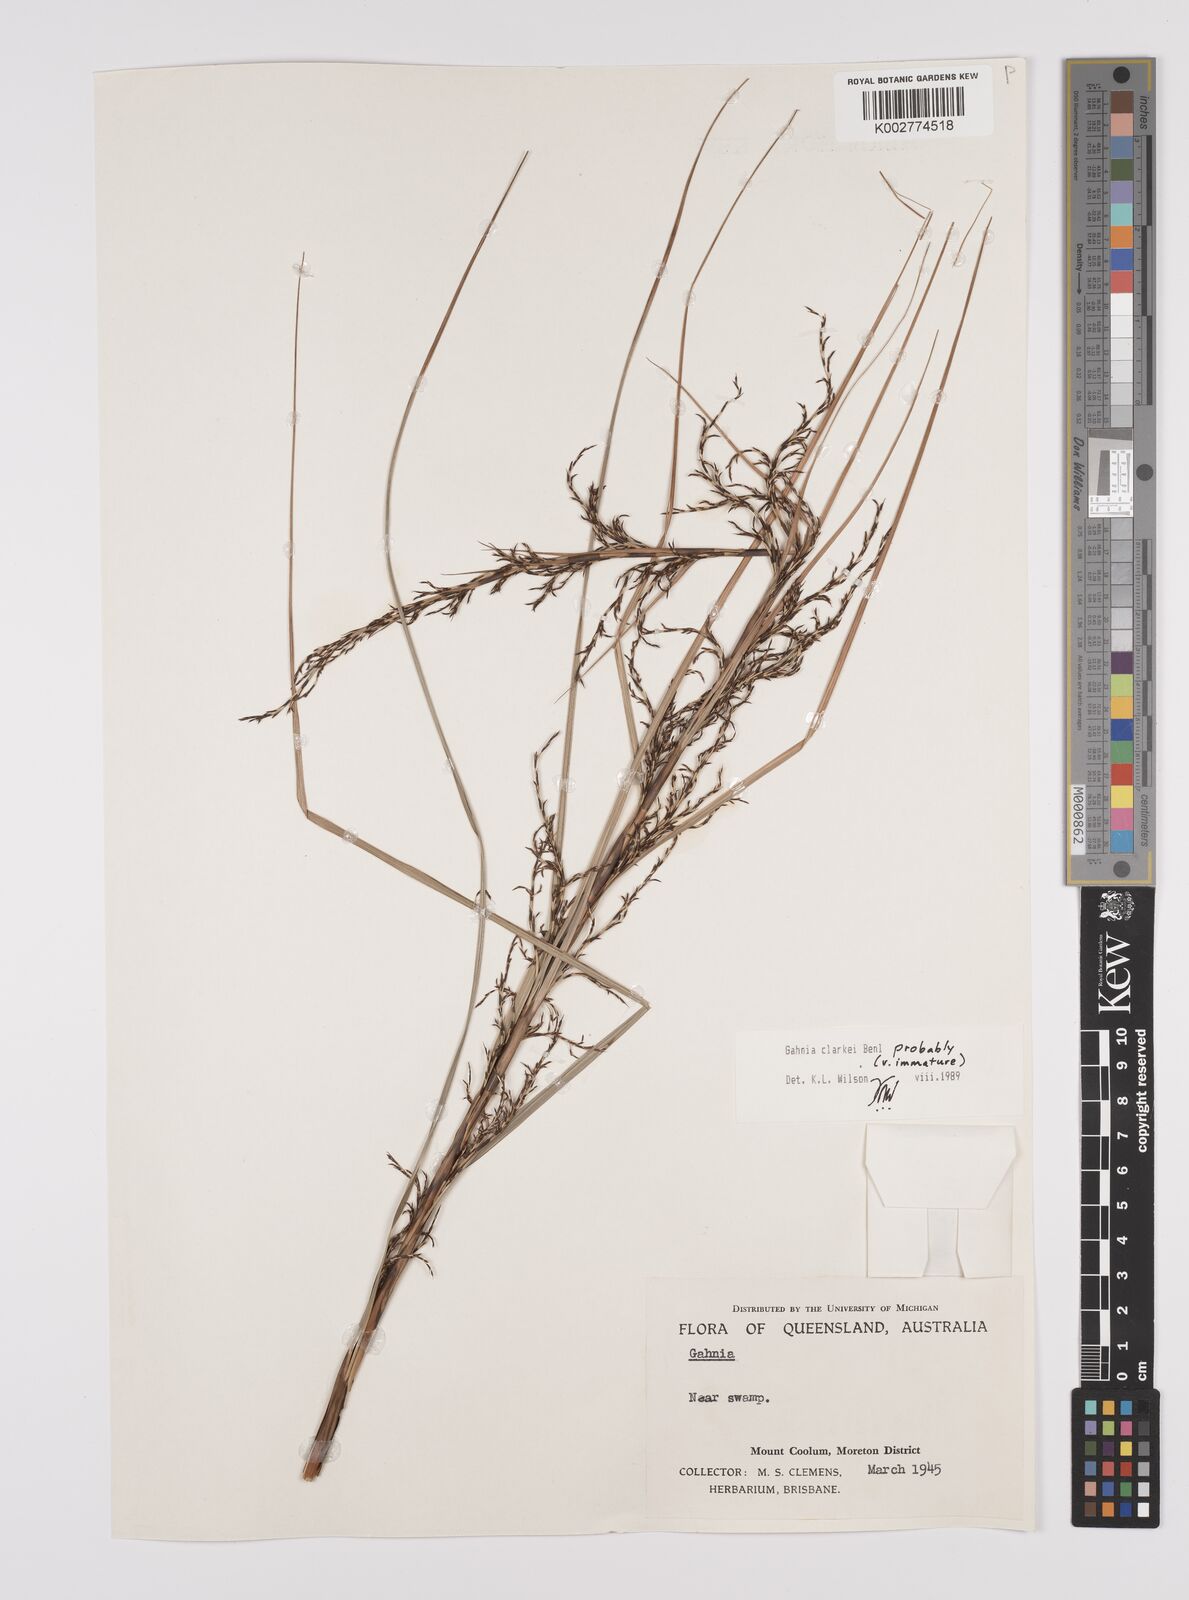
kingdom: Plantae
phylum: Tracheophyta
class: Liliopsida
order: Poales
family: Cyperaceae
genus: Gahnia
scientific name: Gahnia clarkei
